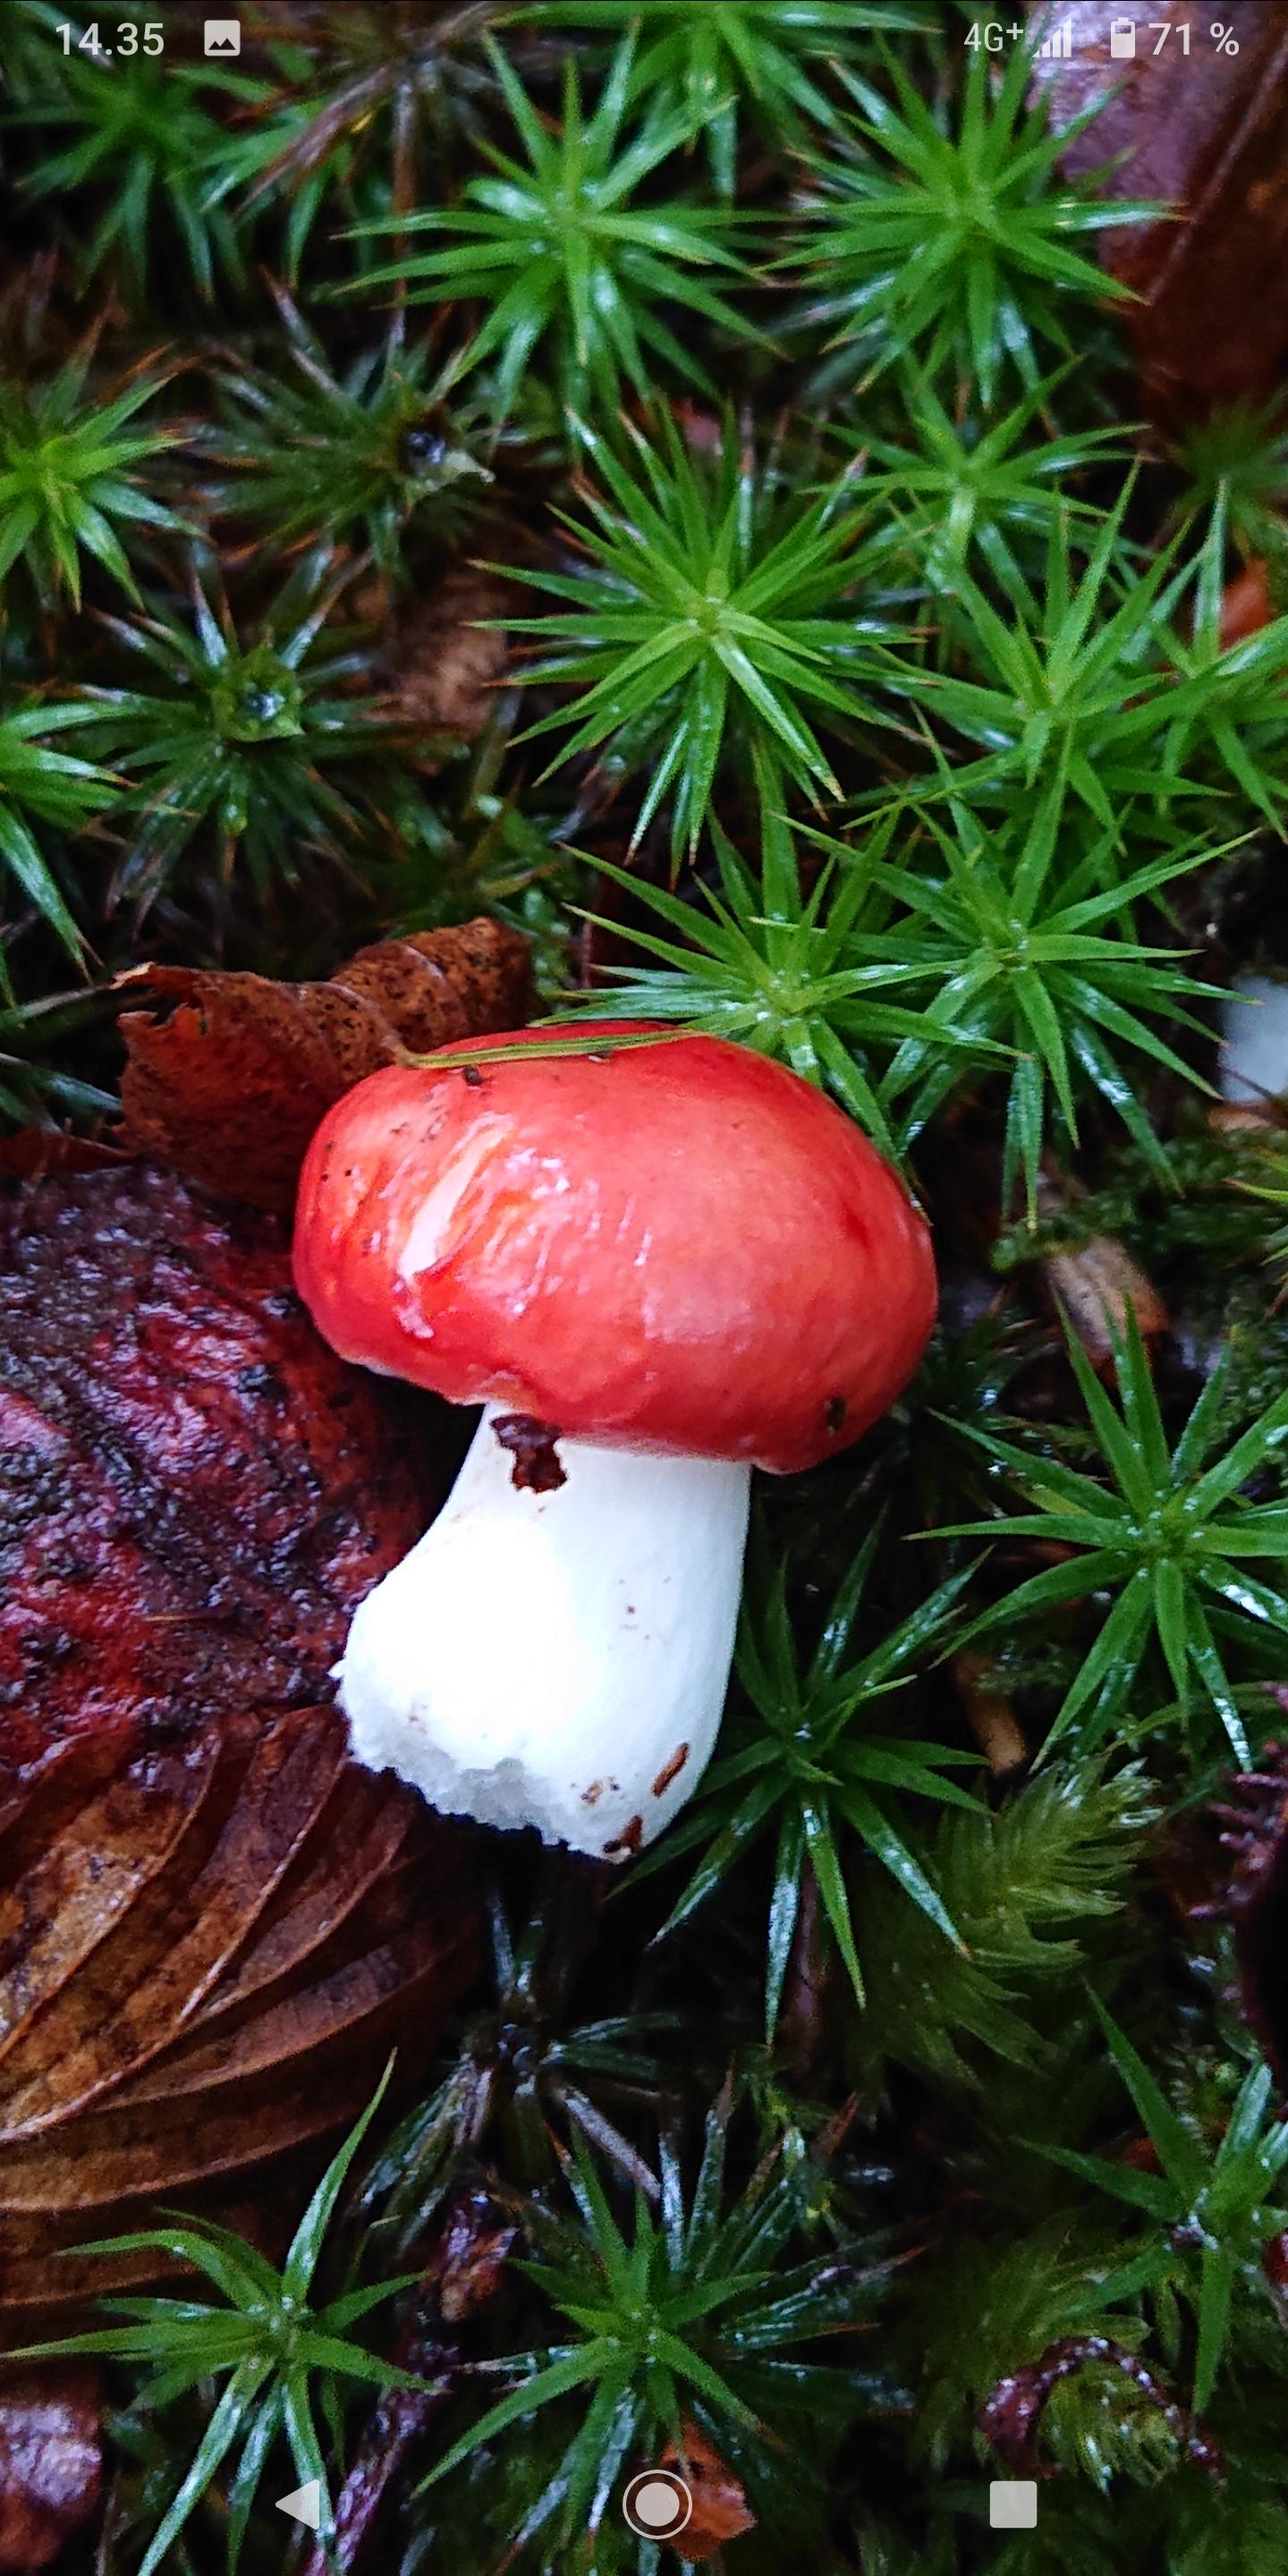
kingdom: Fungi
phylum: Basidiomycota
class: Agaricomycetes
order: Russulales
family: Russulaceae
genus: Russula
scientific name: Russula
